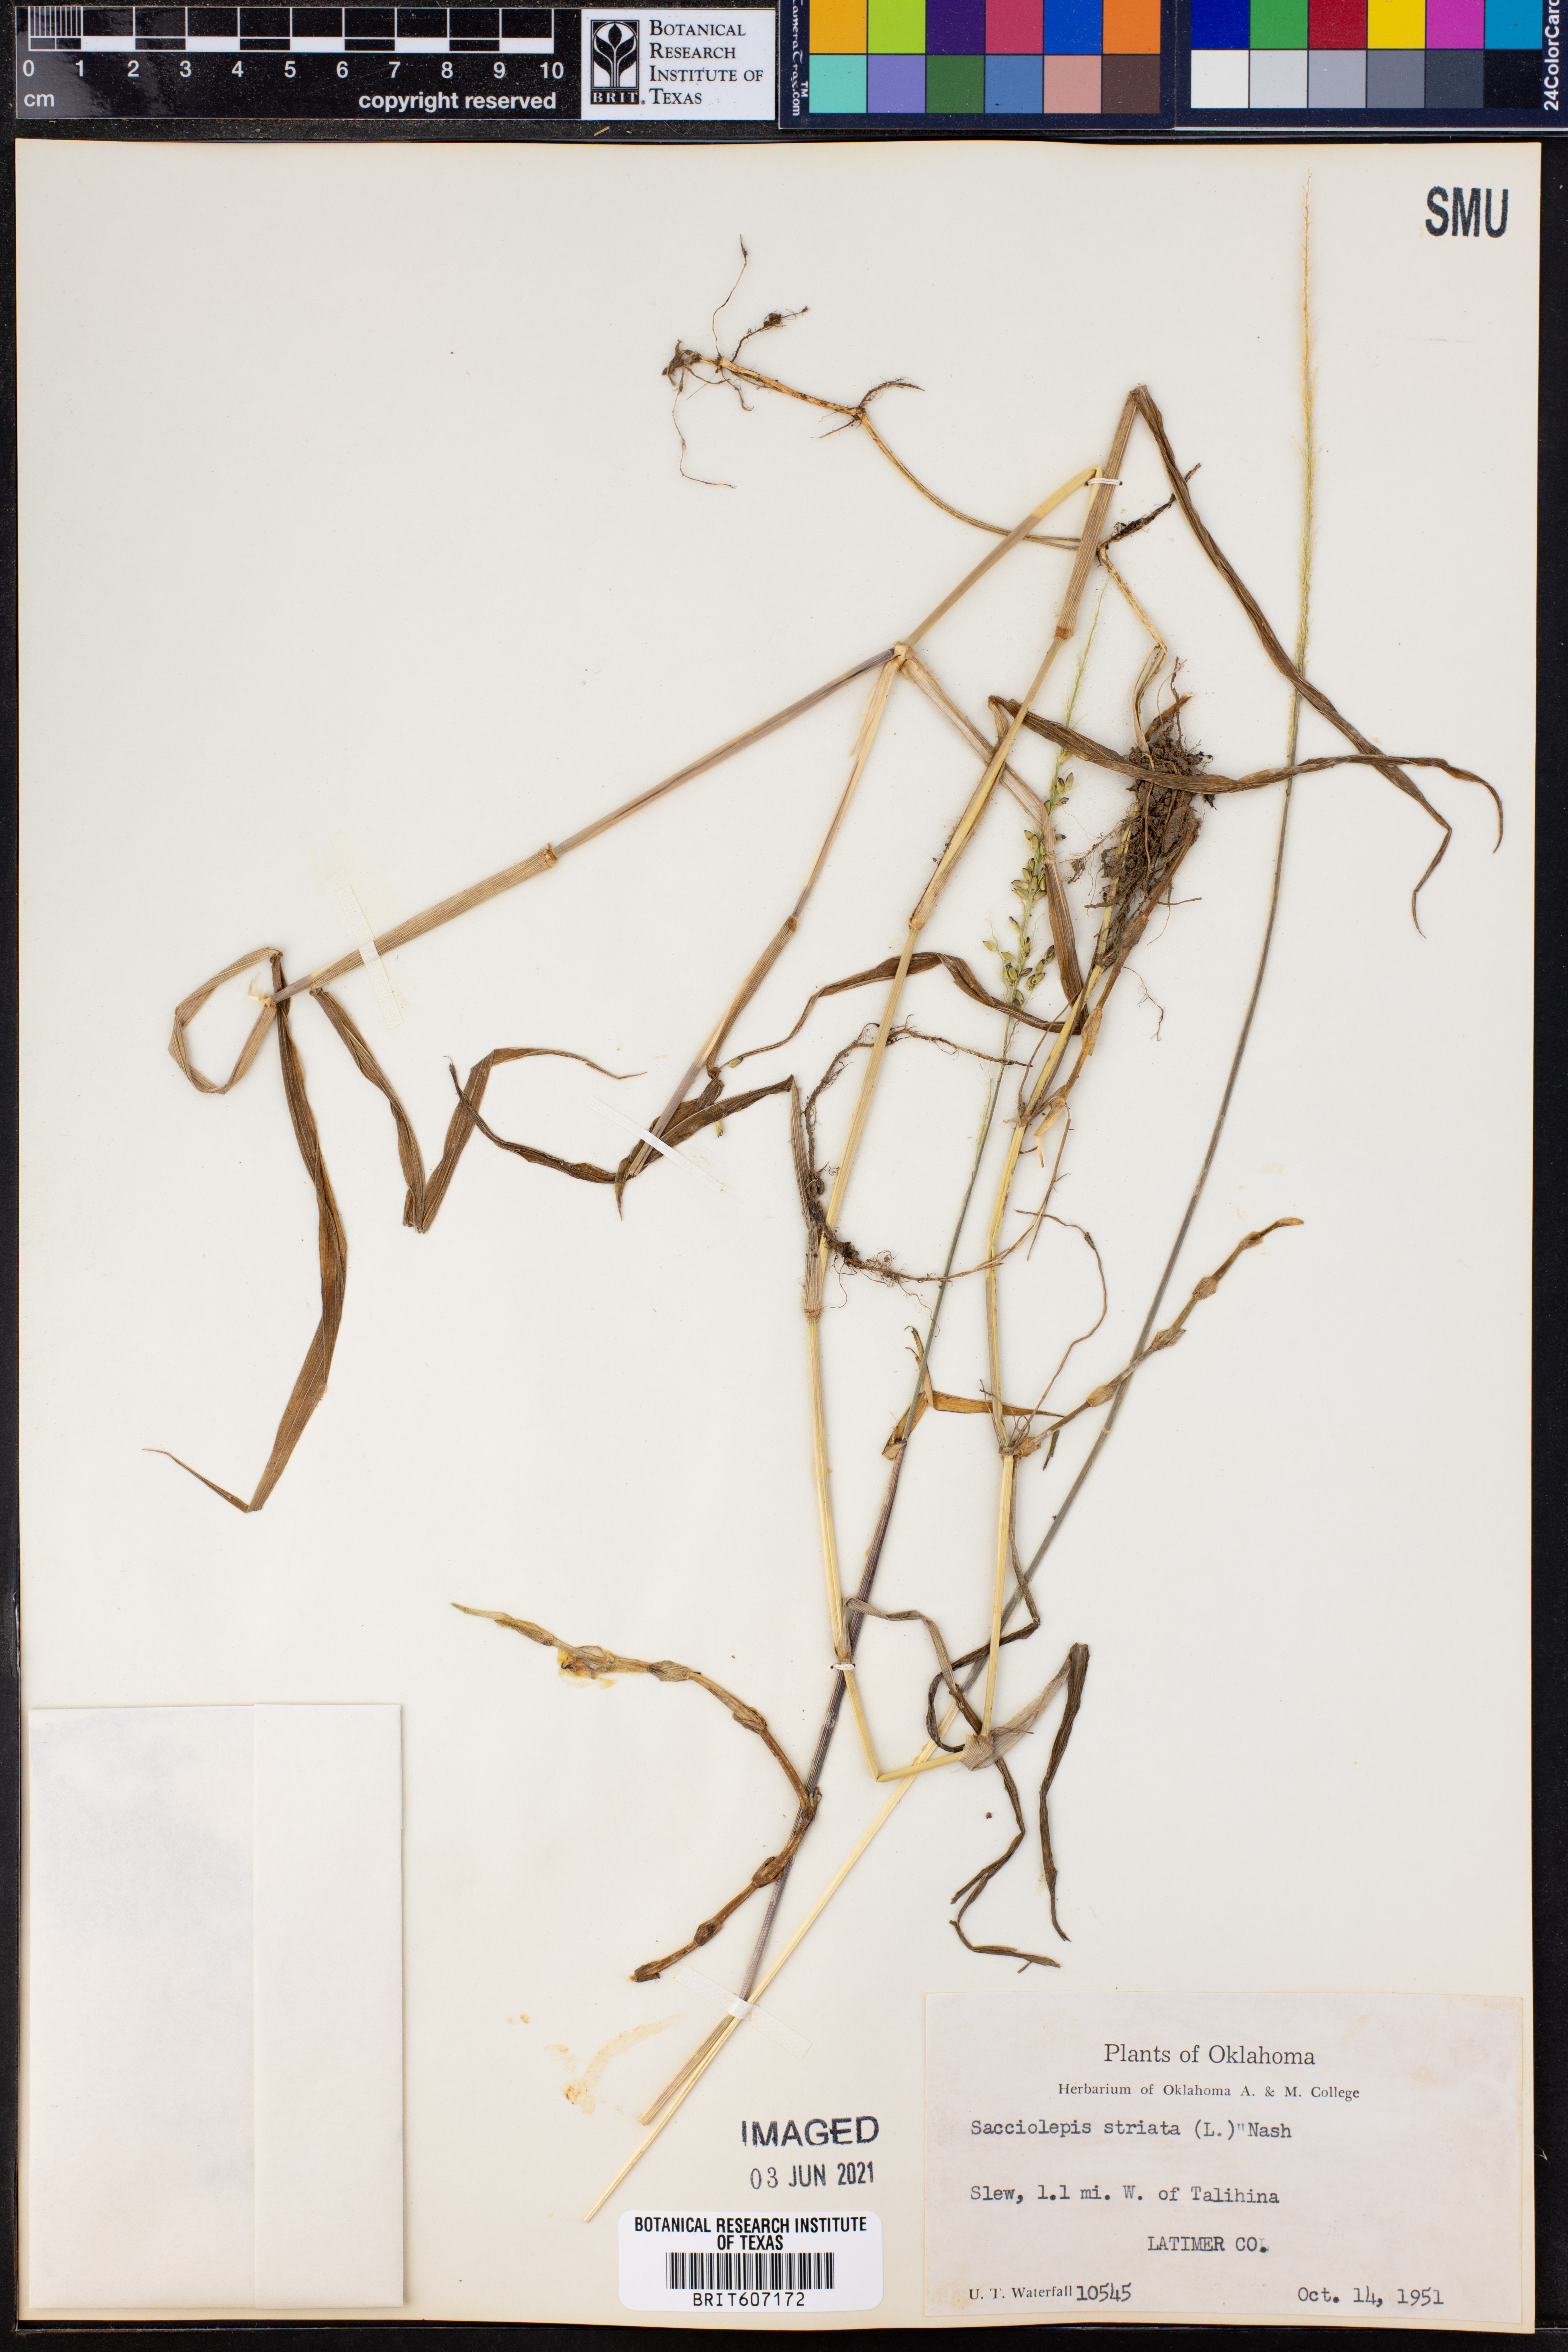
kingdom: Plantae
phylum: Tracheophyta
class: Liliopsida
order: Poales
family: Poaceae
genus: Sacciolepis
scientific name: Sacciolepis striata
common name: American cupscale
